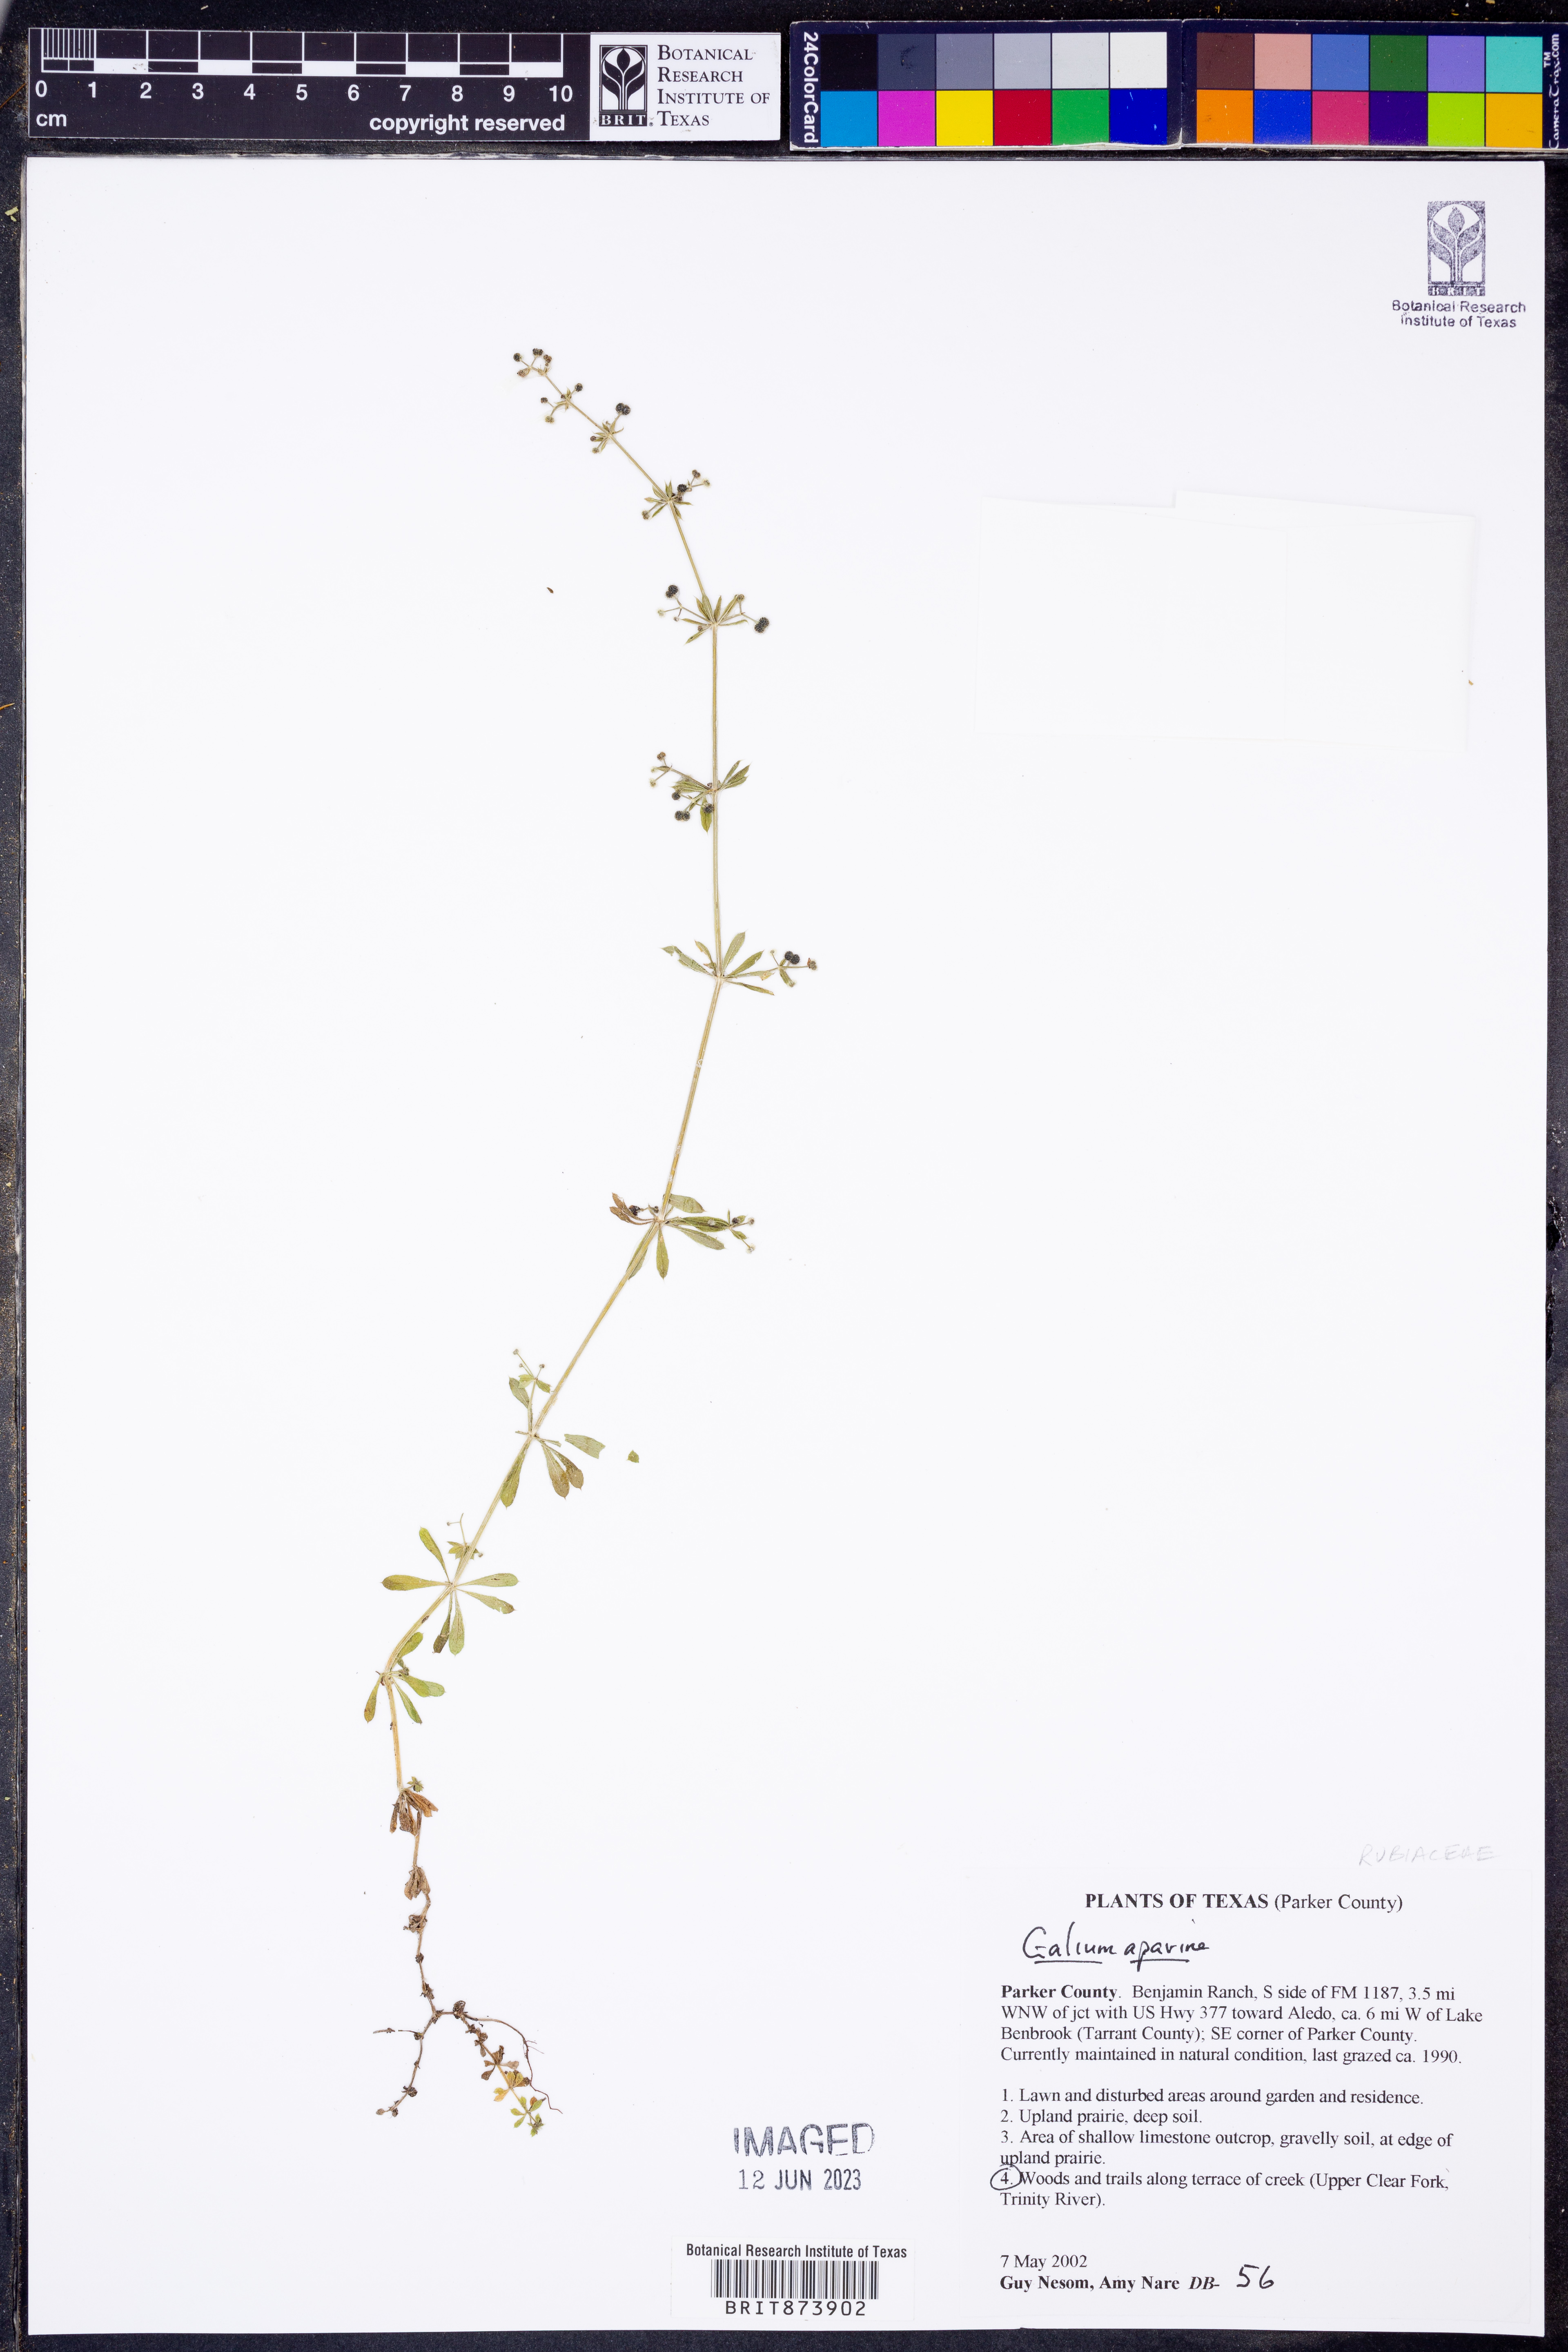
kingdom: Plantae
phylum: Tracheophyta
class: Magnoliopsida
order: Gentianales
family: Rubiaceae
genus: Galium
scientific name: Galium aparine
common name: Cleavers
